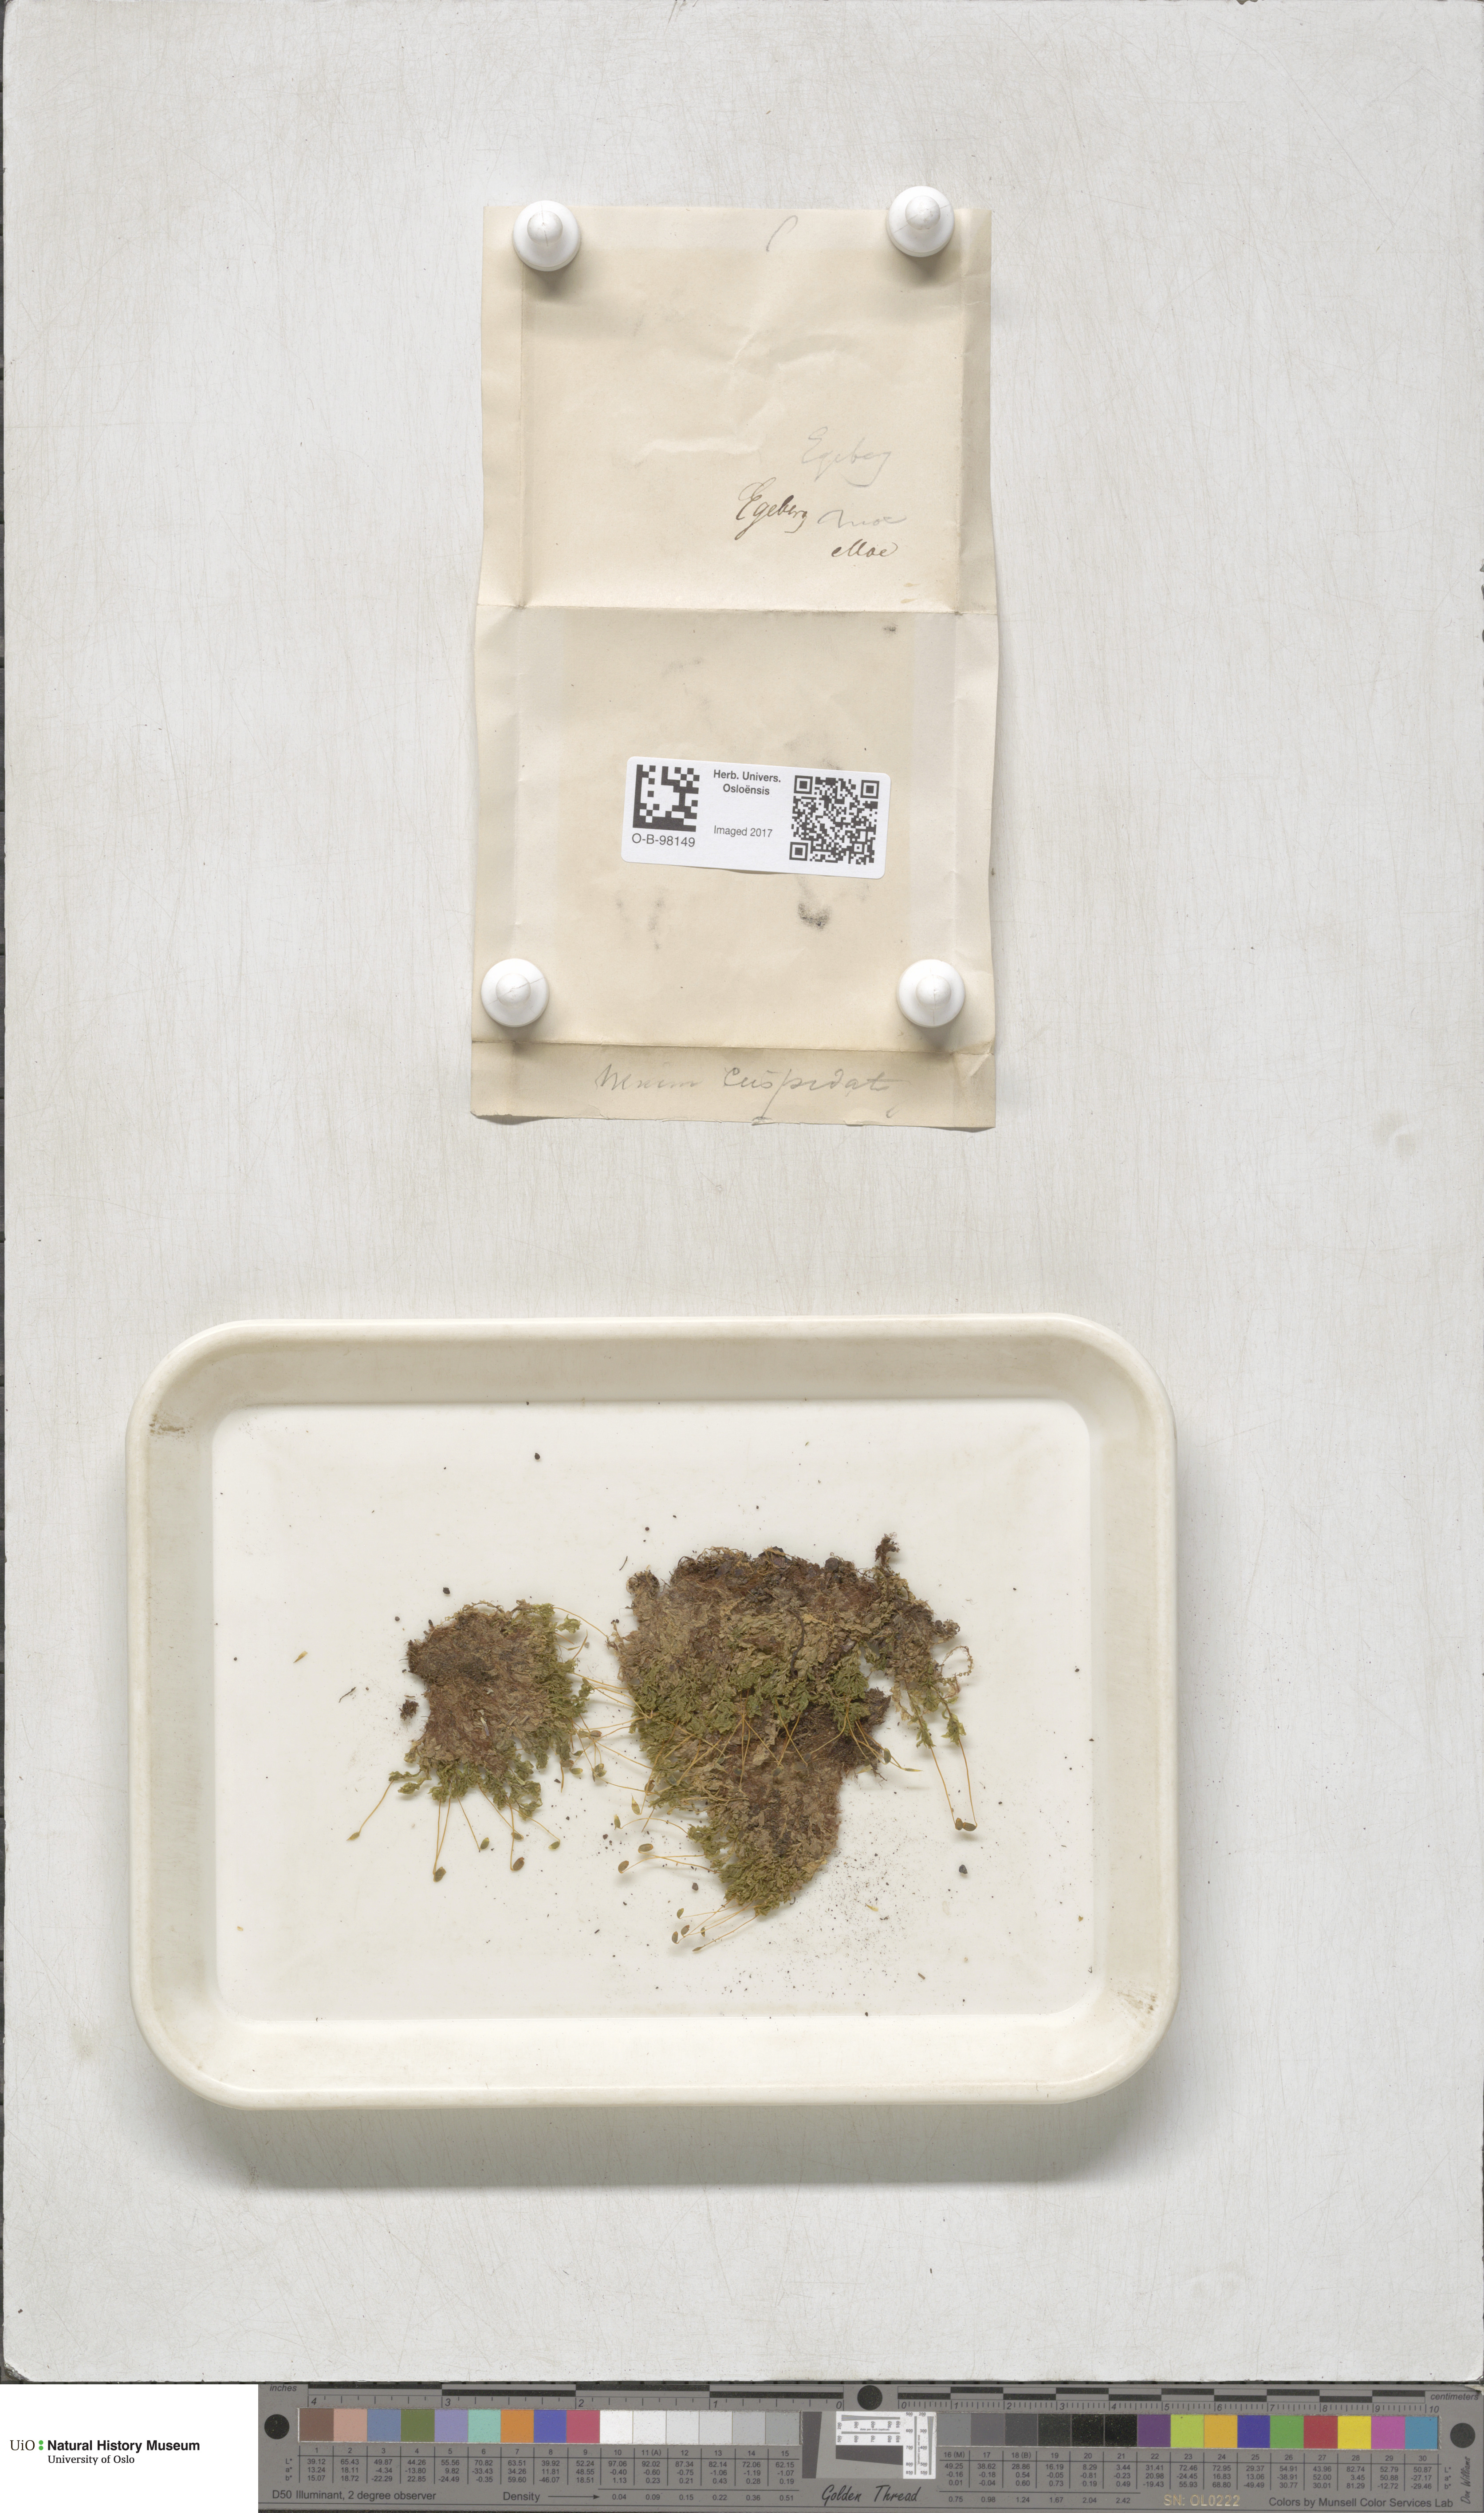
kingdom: Plantae
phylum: Bryophyta
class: Bryopsida
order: Bryales
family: Mniaceae
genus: Plagiomnium
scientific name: Plagiomnium cuspidatum
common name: Woodsy leafy moss
